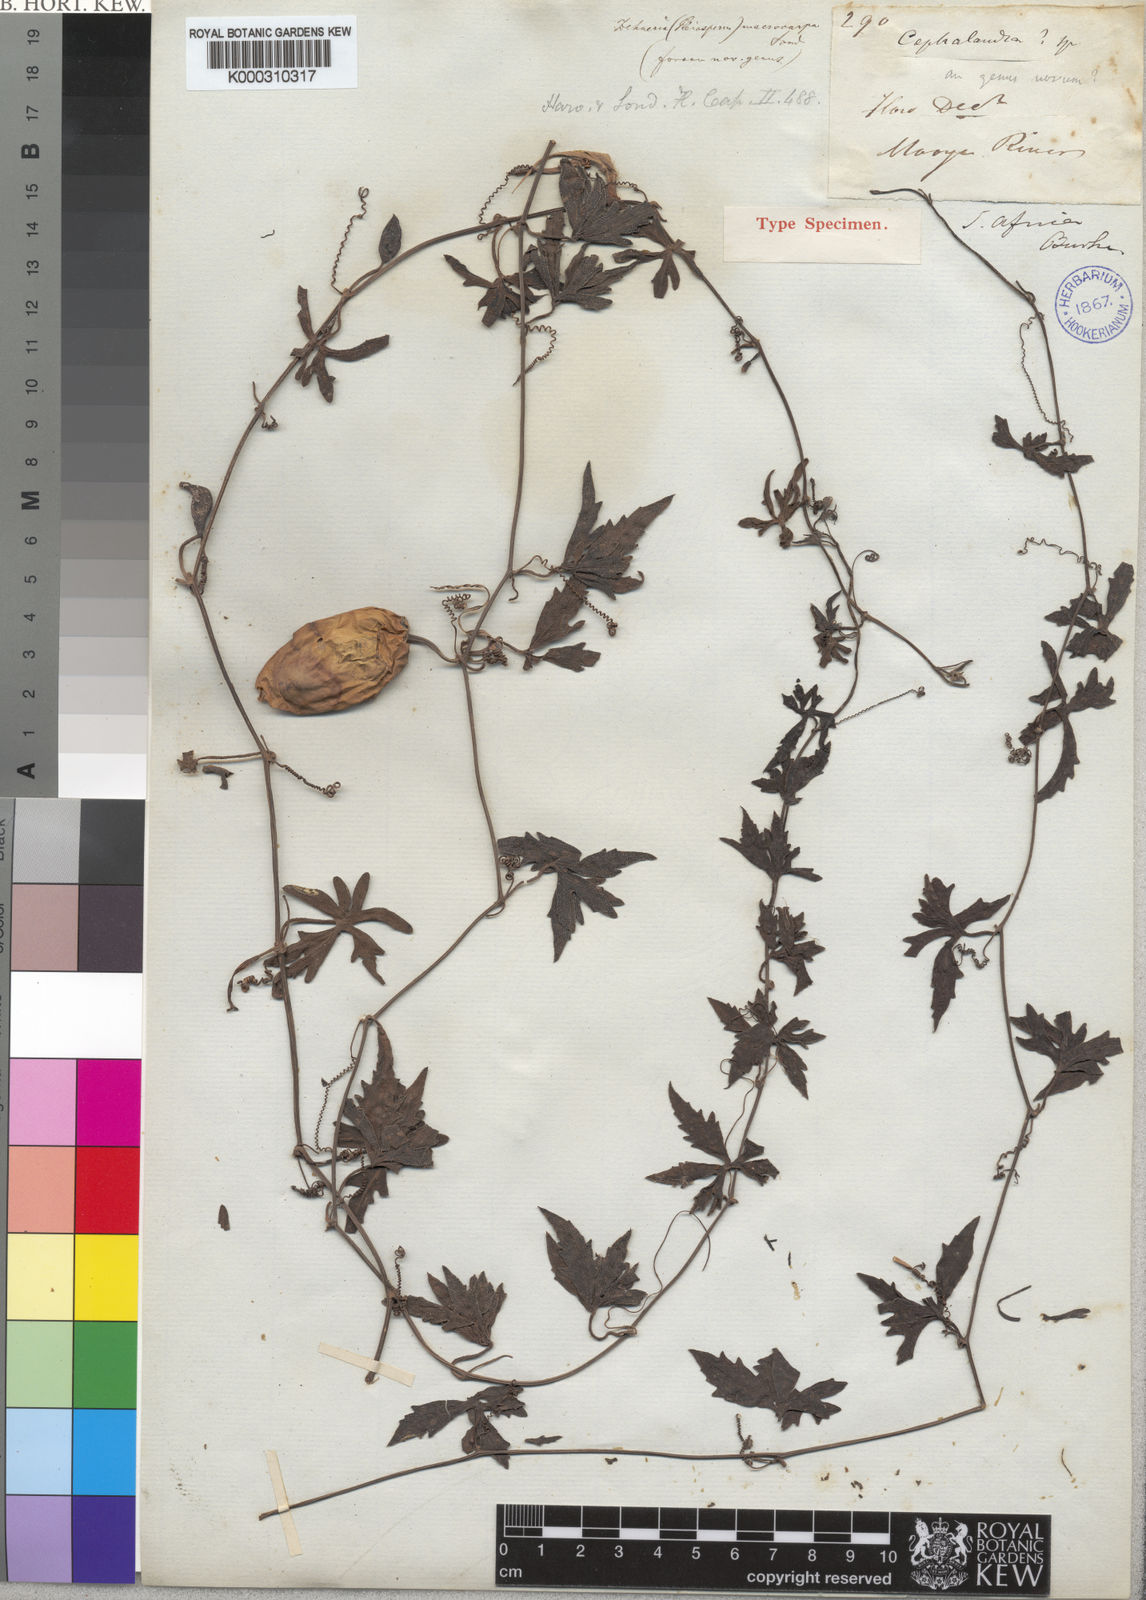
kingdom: Plantae
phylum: Tracheophyta
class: Magnoliopsida
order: Cucurbitales
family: Cucurbitaceae
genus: Trochomeria
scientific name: Trochomeria macrocarpa
